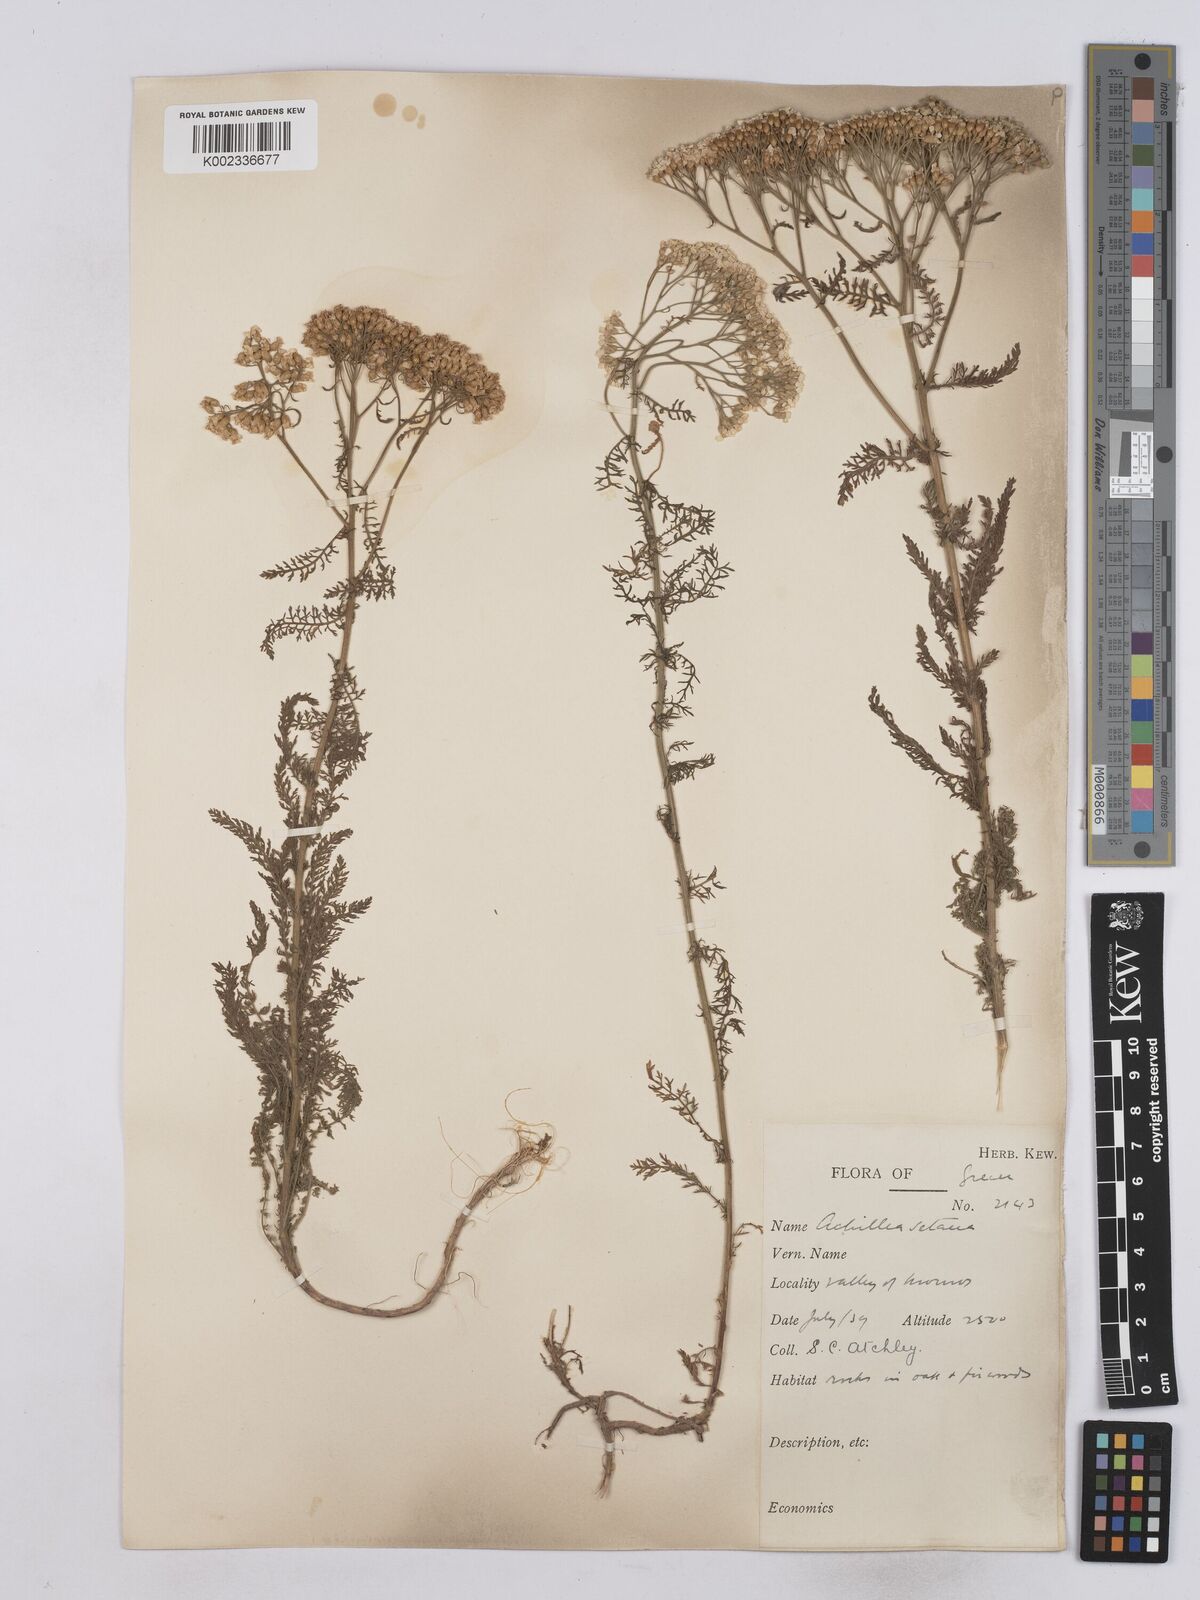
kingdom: Plantae
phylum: Tracheophyta
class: Magnoliopsida
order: Asterales
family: Asteraceae
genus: Achillea
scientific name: Achillea setacea
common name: Bristly yarrow
